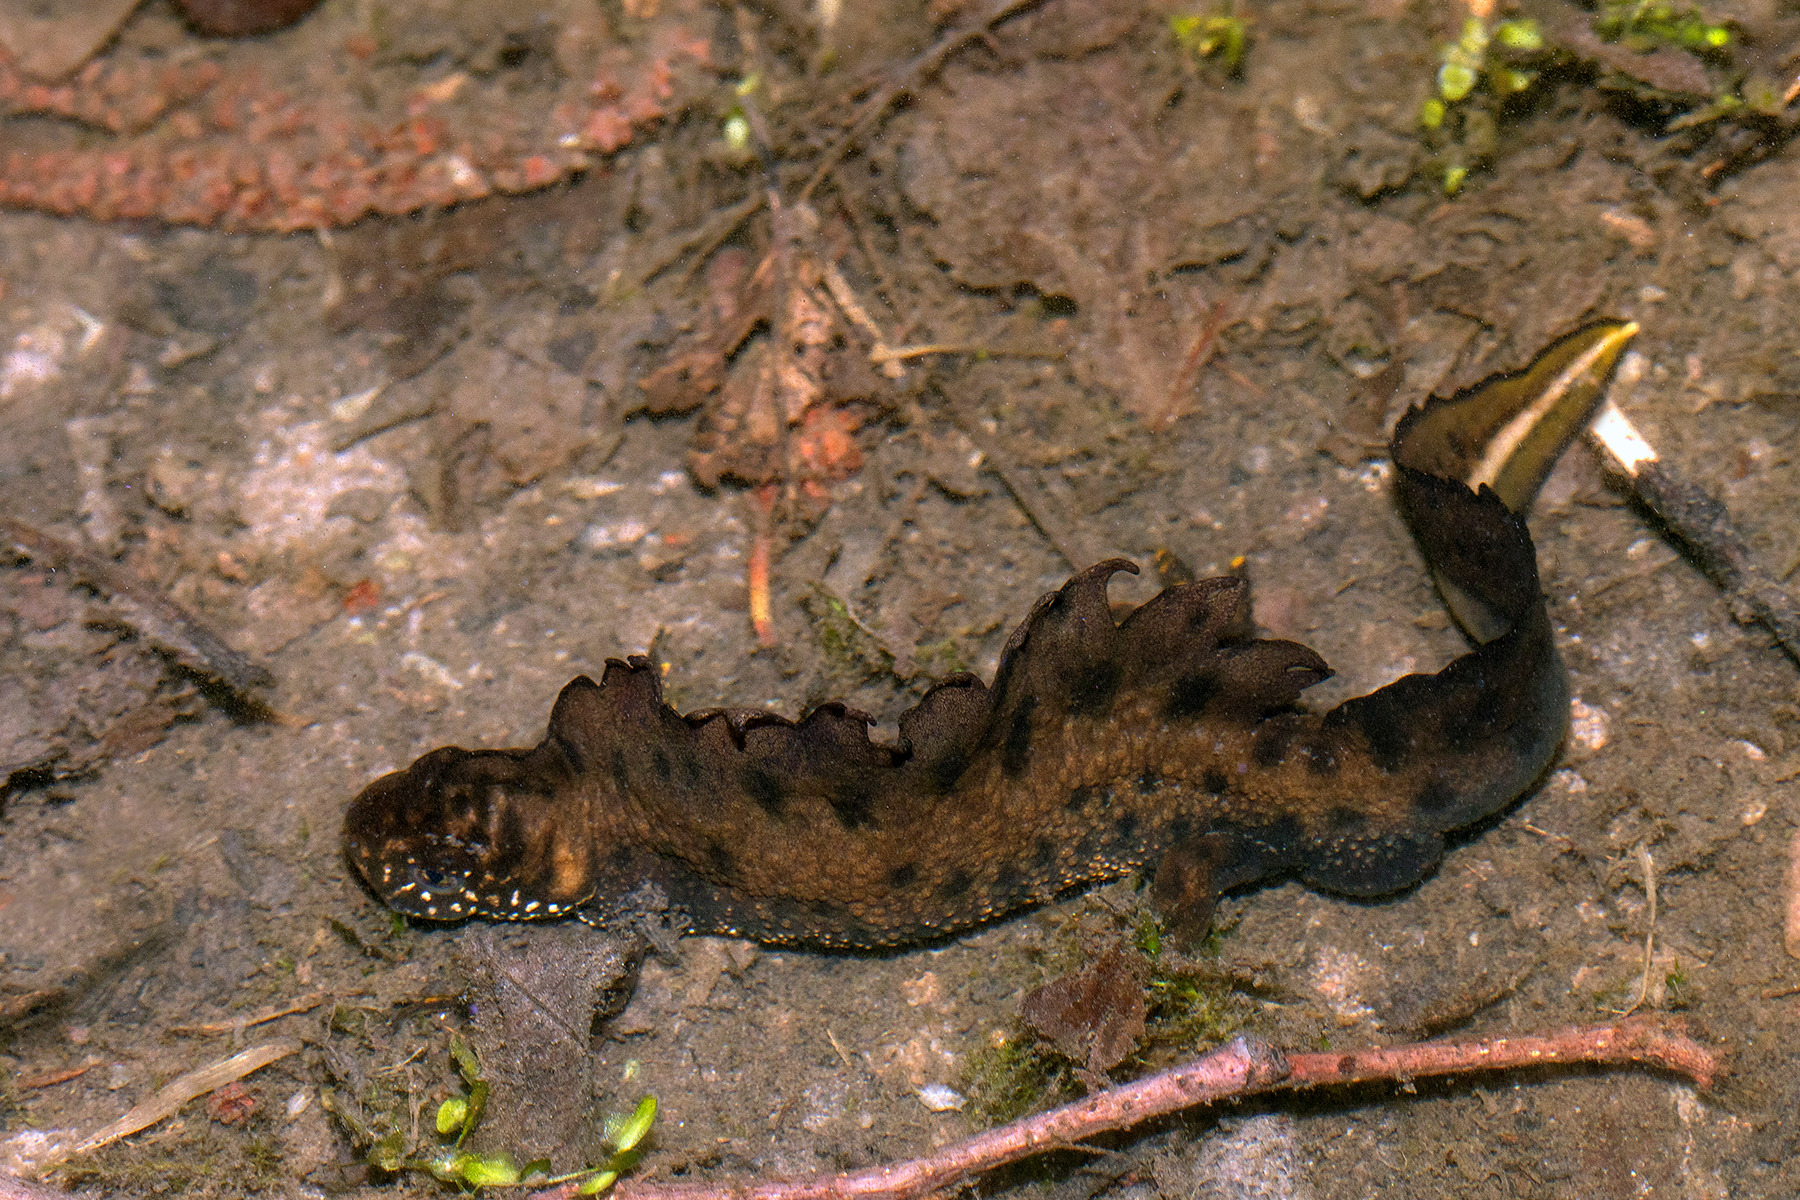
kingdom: Animalia
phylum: Chordata
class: Amphibia
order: Caudata
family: Salamandridae
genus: Triturus
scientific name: Triturus cristatus
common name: Stor vandsalamander
